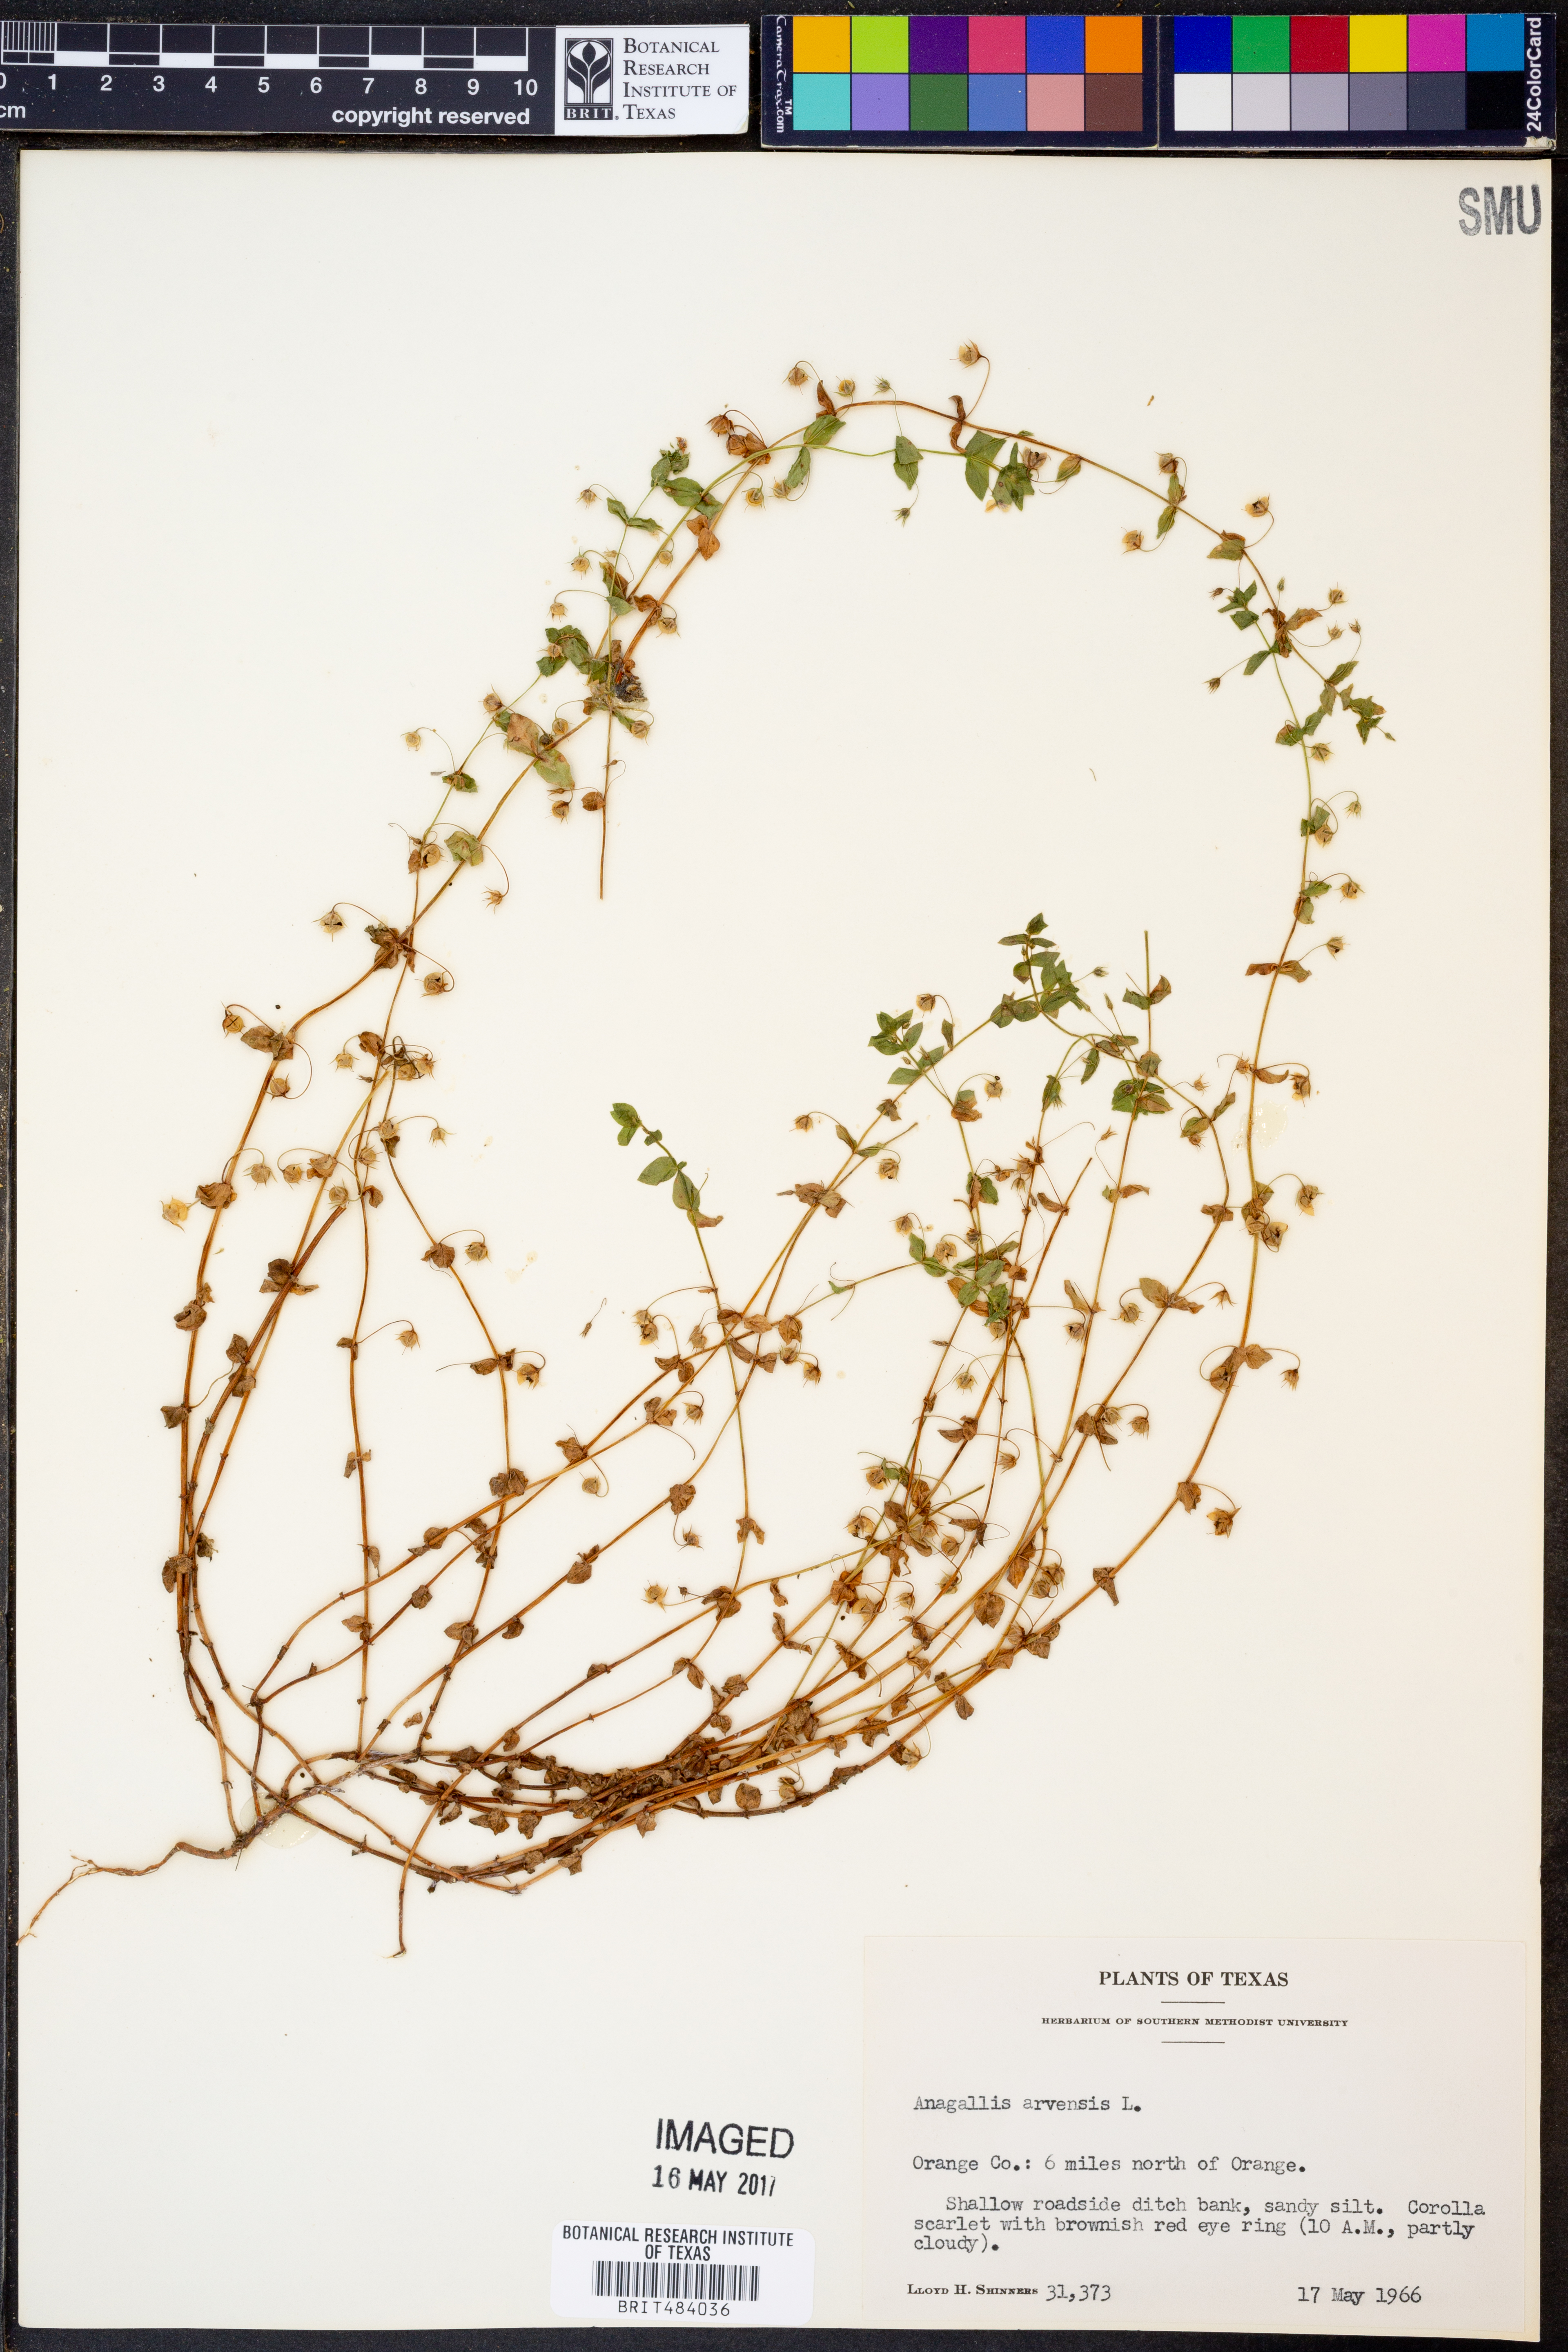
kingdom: Plantae
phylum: Tracheophyta
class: Magnoliopsida
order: Ericales
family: Primulaceae
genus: Lysimachia
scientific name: Lysimachia arvensis
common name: Scarlet pimpernel
